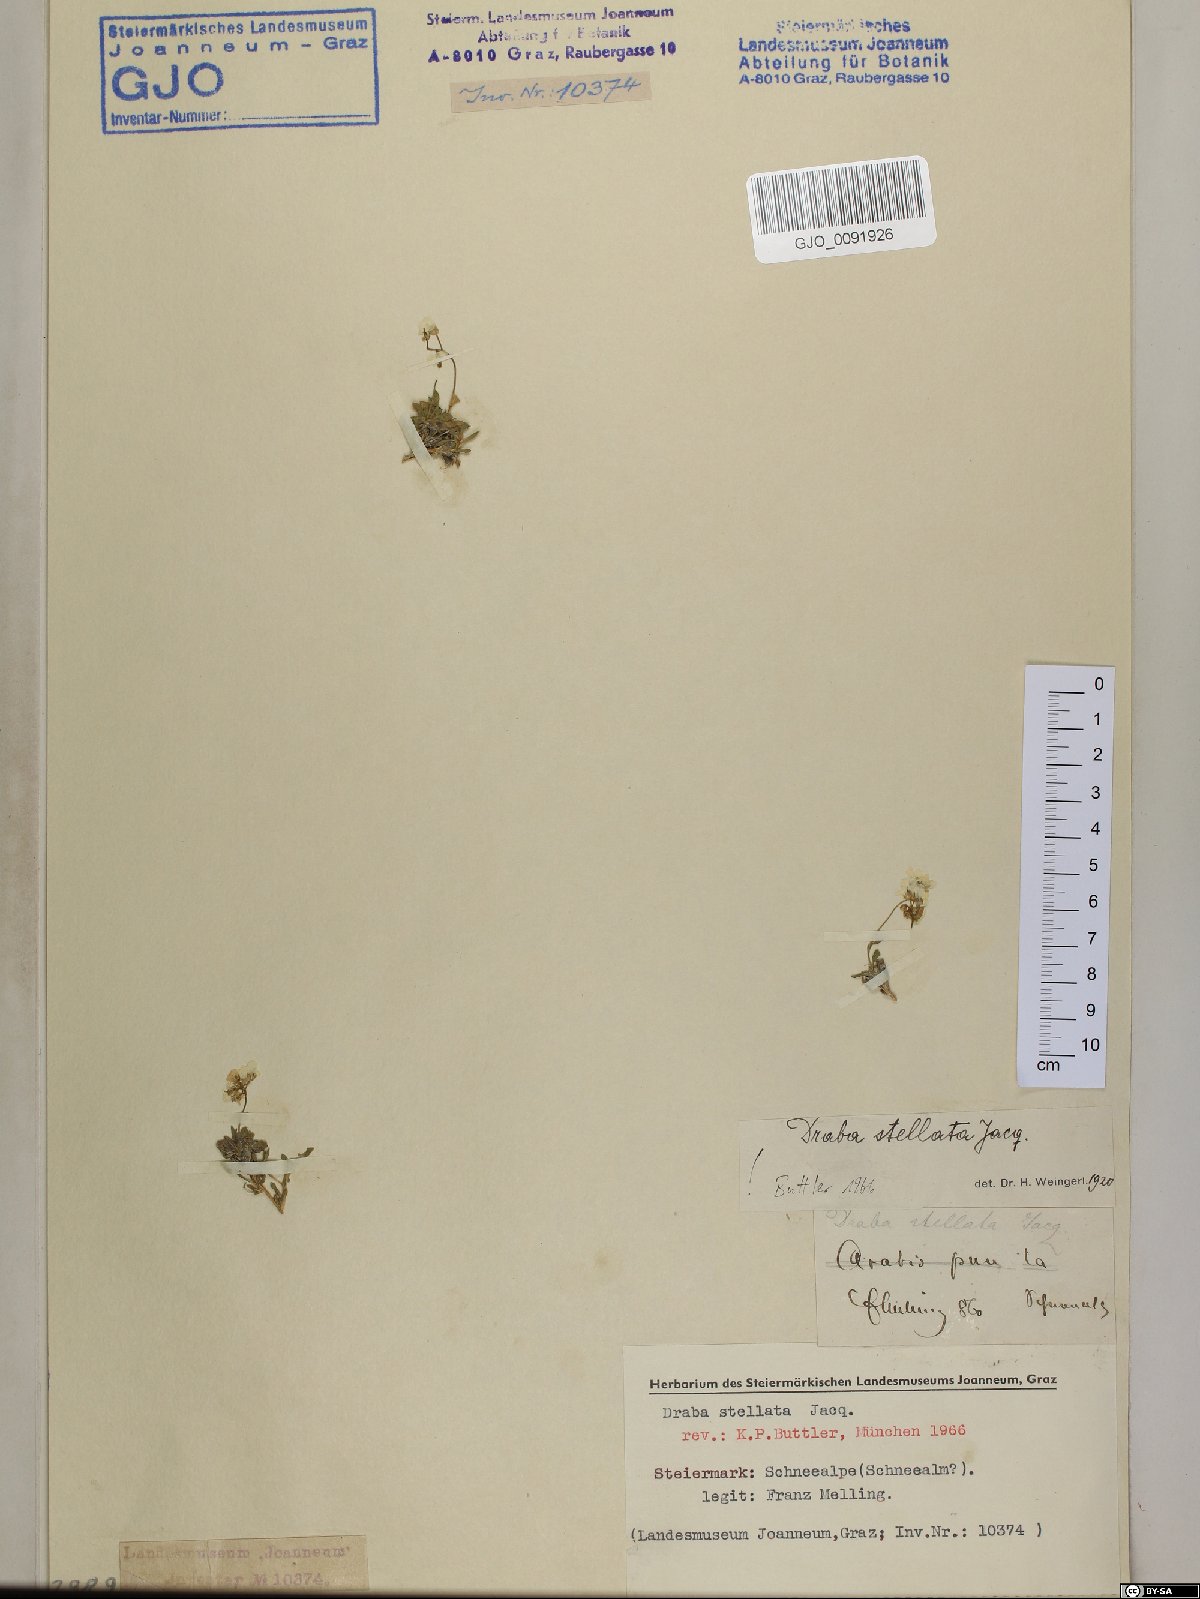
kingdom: Plantae
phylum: Tracheophyta
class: Magnoliopsida
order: Brassicales
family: Brassicaceae
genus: Draba
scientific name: Draba stellata
